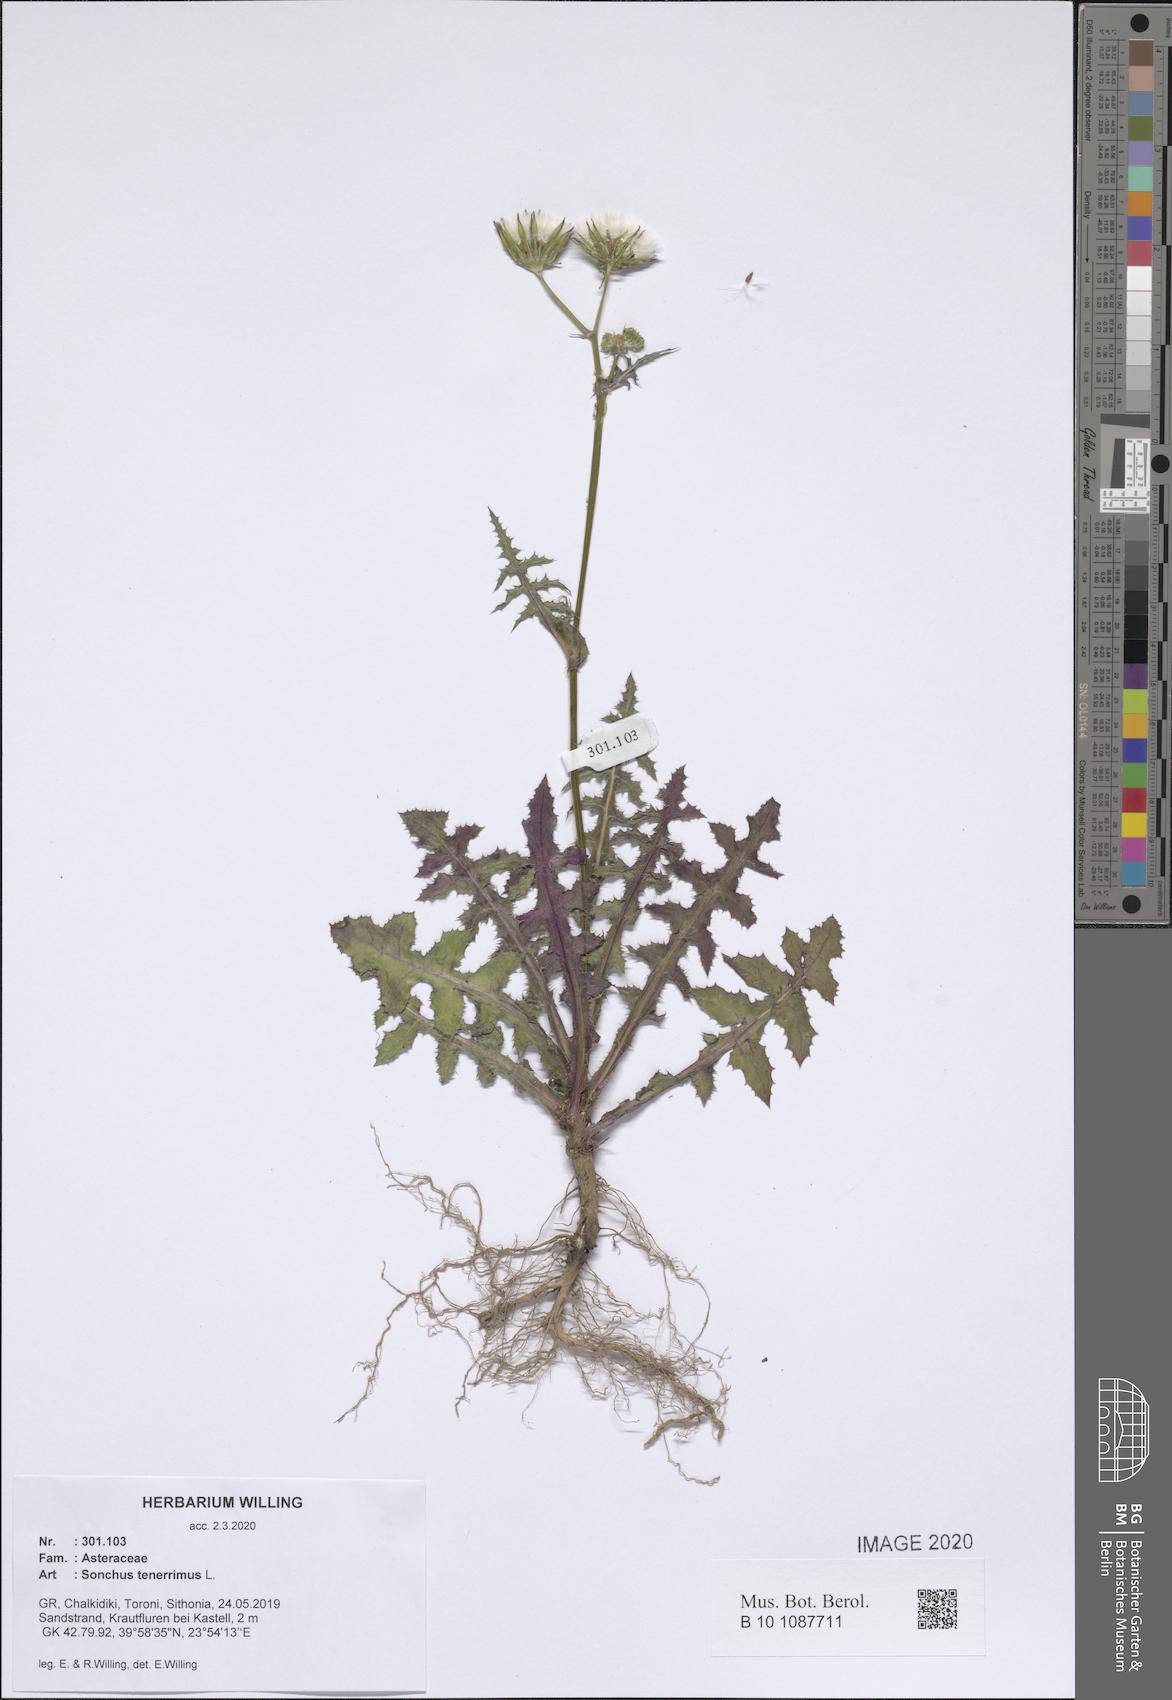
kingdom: Plantae
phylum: Tracheophyta
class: Magnoliopsida
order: Asterales
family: Asteraceae
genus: Sonchus
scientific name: Sonchus tenerrimus
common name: Clammy sowthistle
